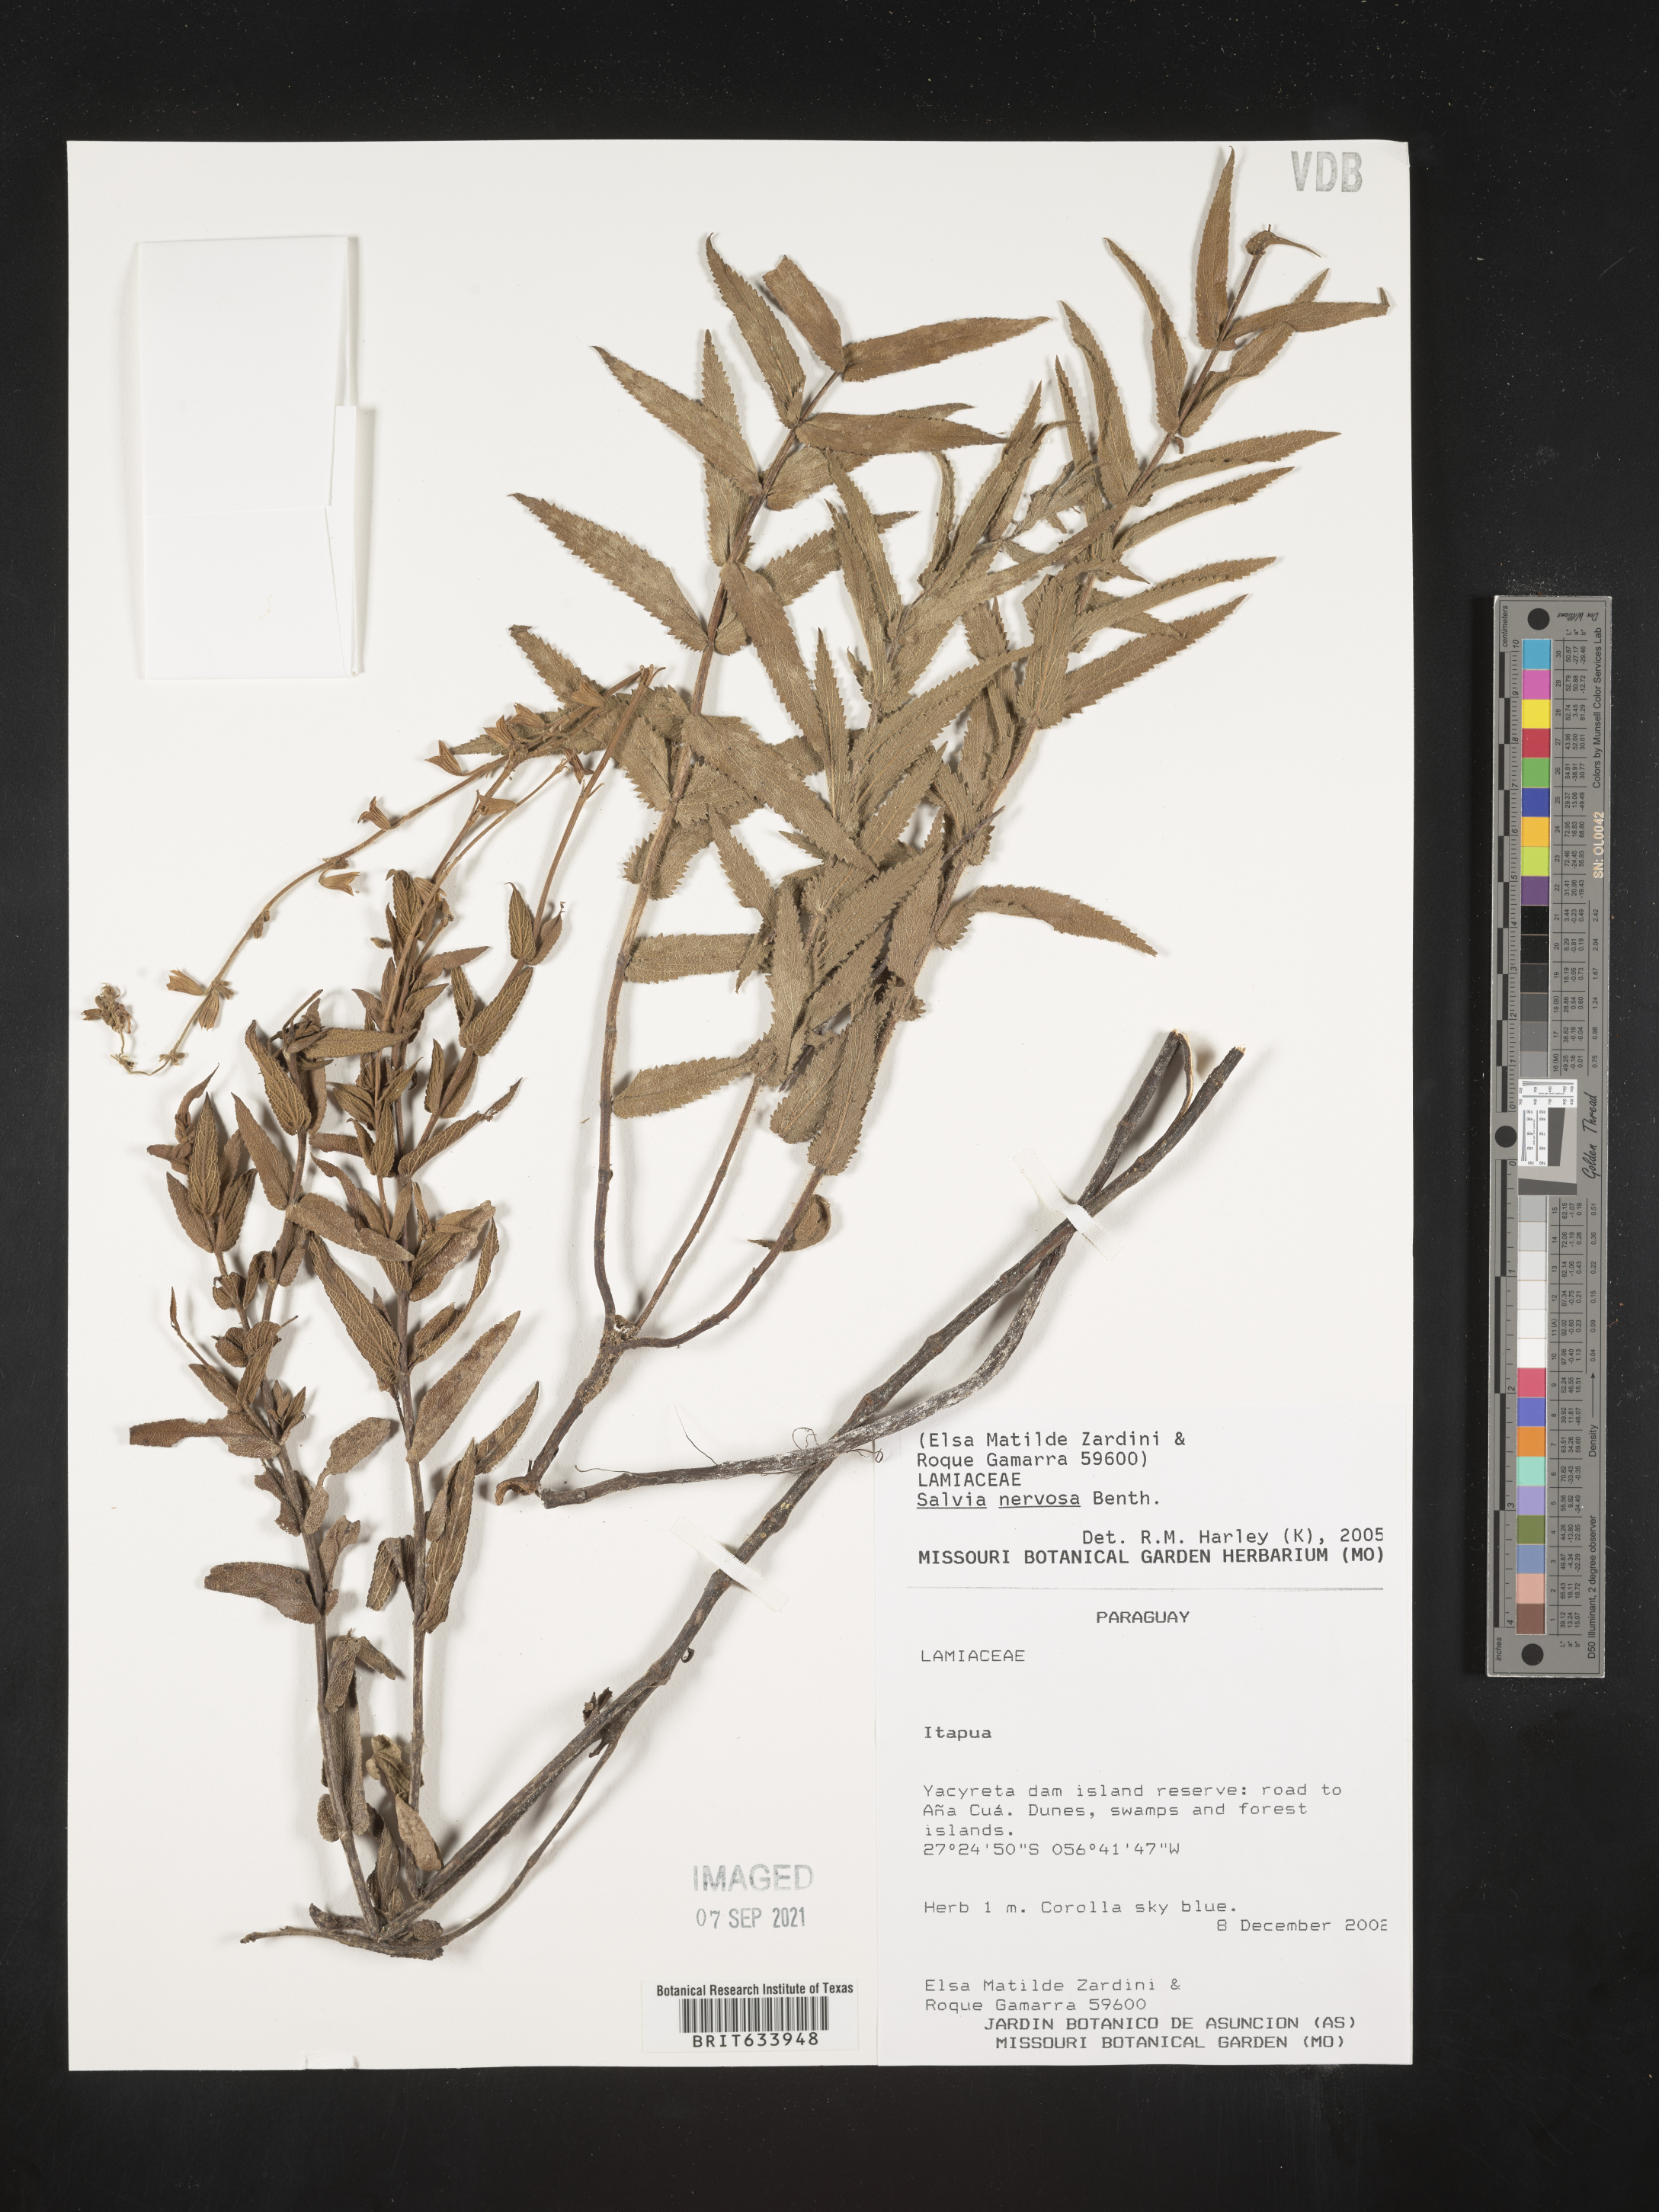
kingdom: Plantae
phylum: Tracheophyta
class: Magnoliopsida
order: Lamiales
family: Lamiaceae
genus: Salvia
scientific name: Salvia
